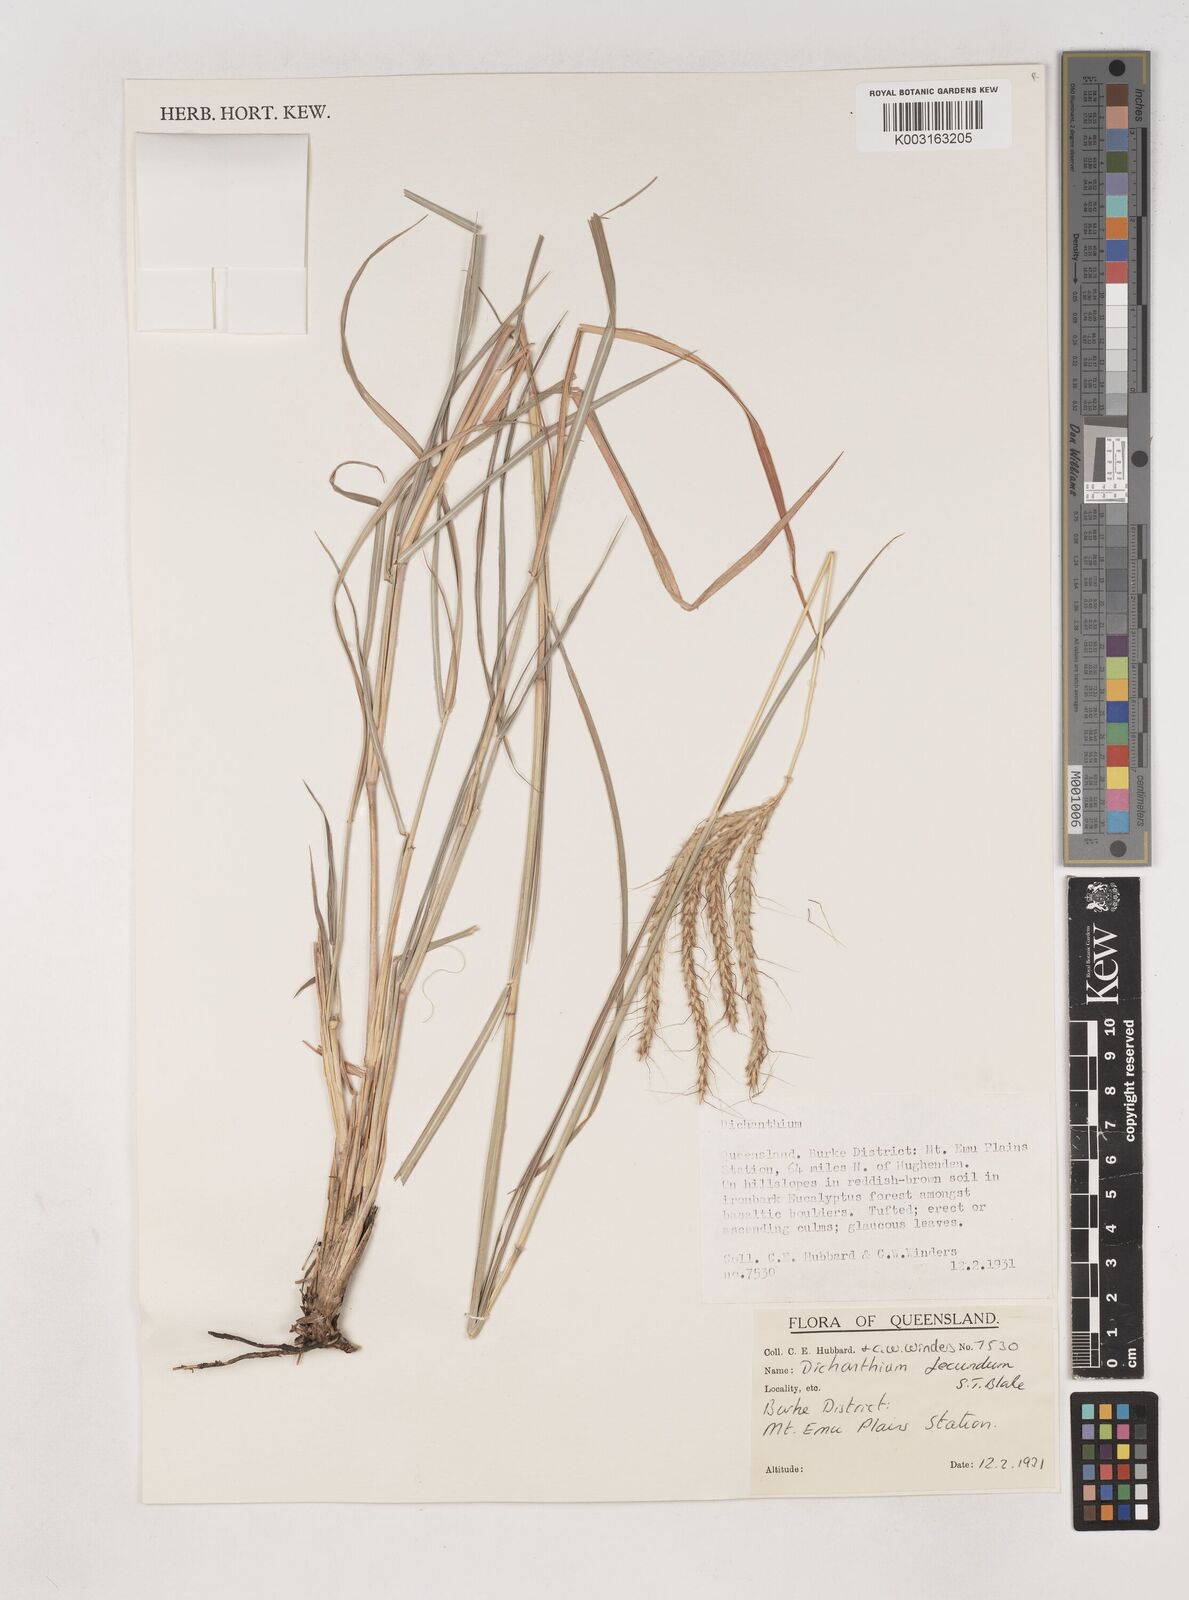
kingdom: Plantae
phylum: Tracheophyta
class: Liliopsida
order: Poales
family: Poaceae
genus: Dichanthium
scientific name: Dichanthium fecundum
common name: Bundle-bundle
